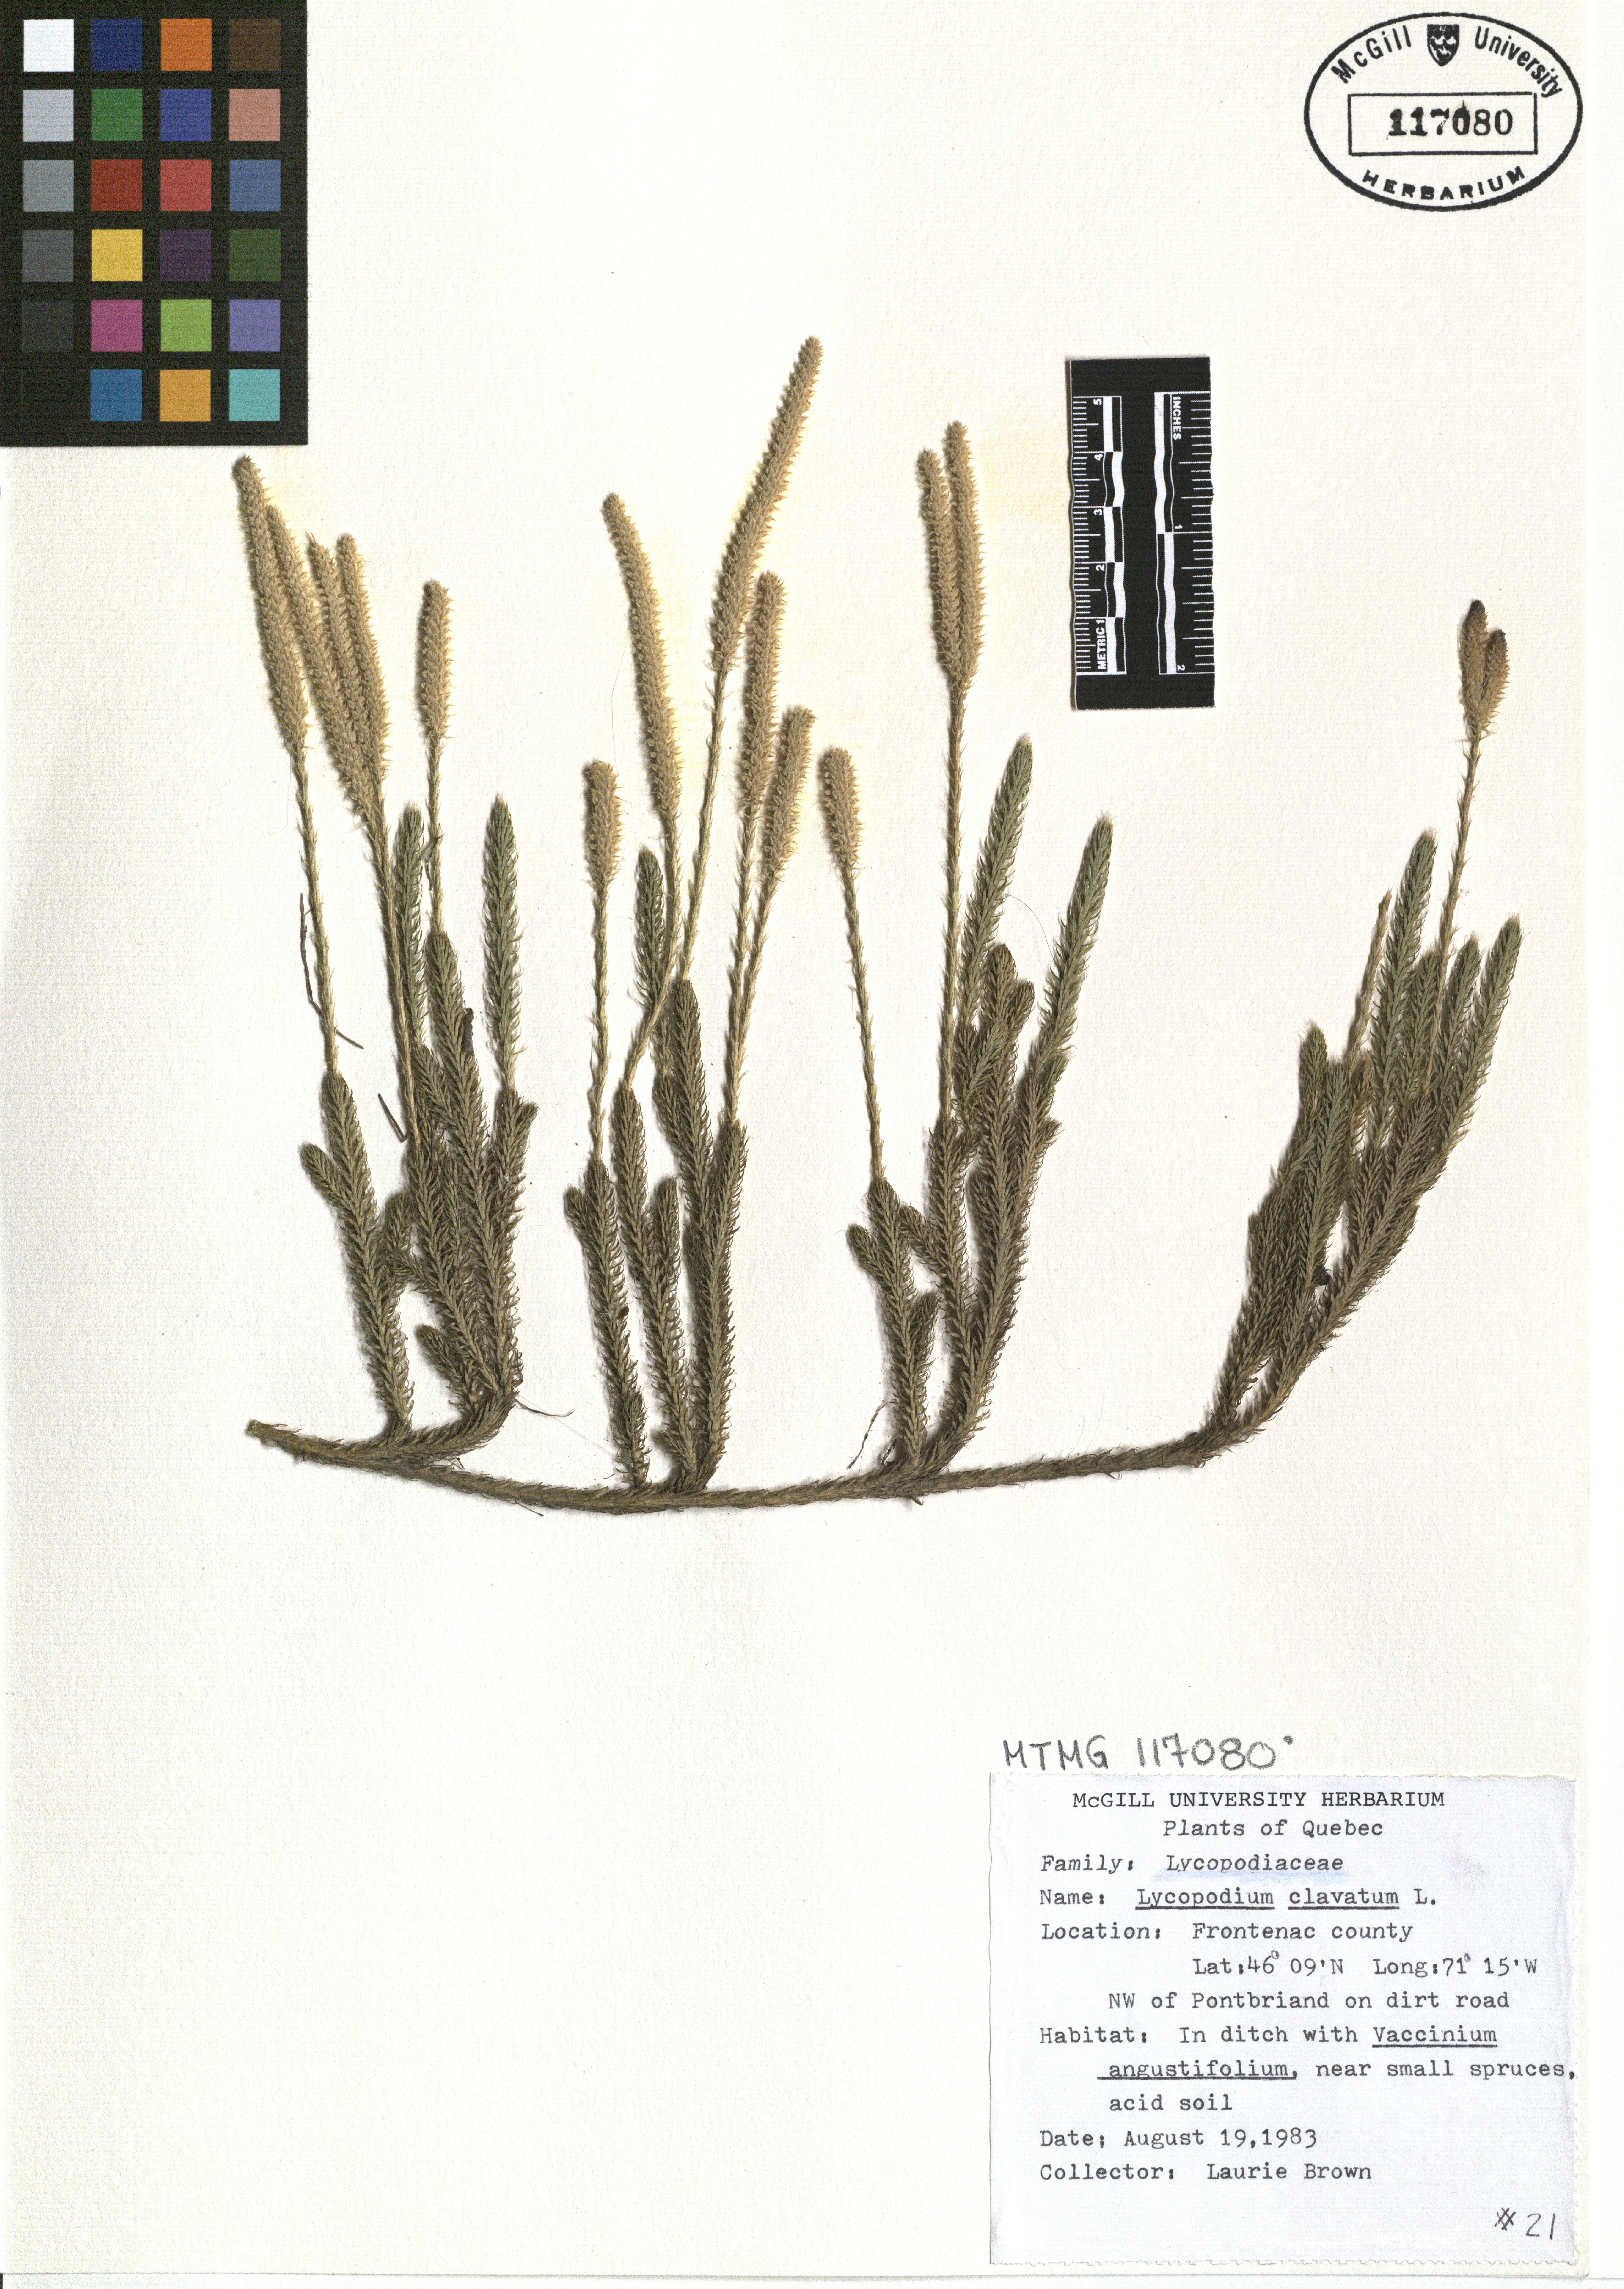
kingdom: Plantae
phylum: Tracheophyta
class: Lycopodiopsida
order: Lycopodiales
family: Lycopodiaceae
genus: Lycopodium
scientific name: Lycopodium clavatum
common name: Stag's-horn clubmoss
